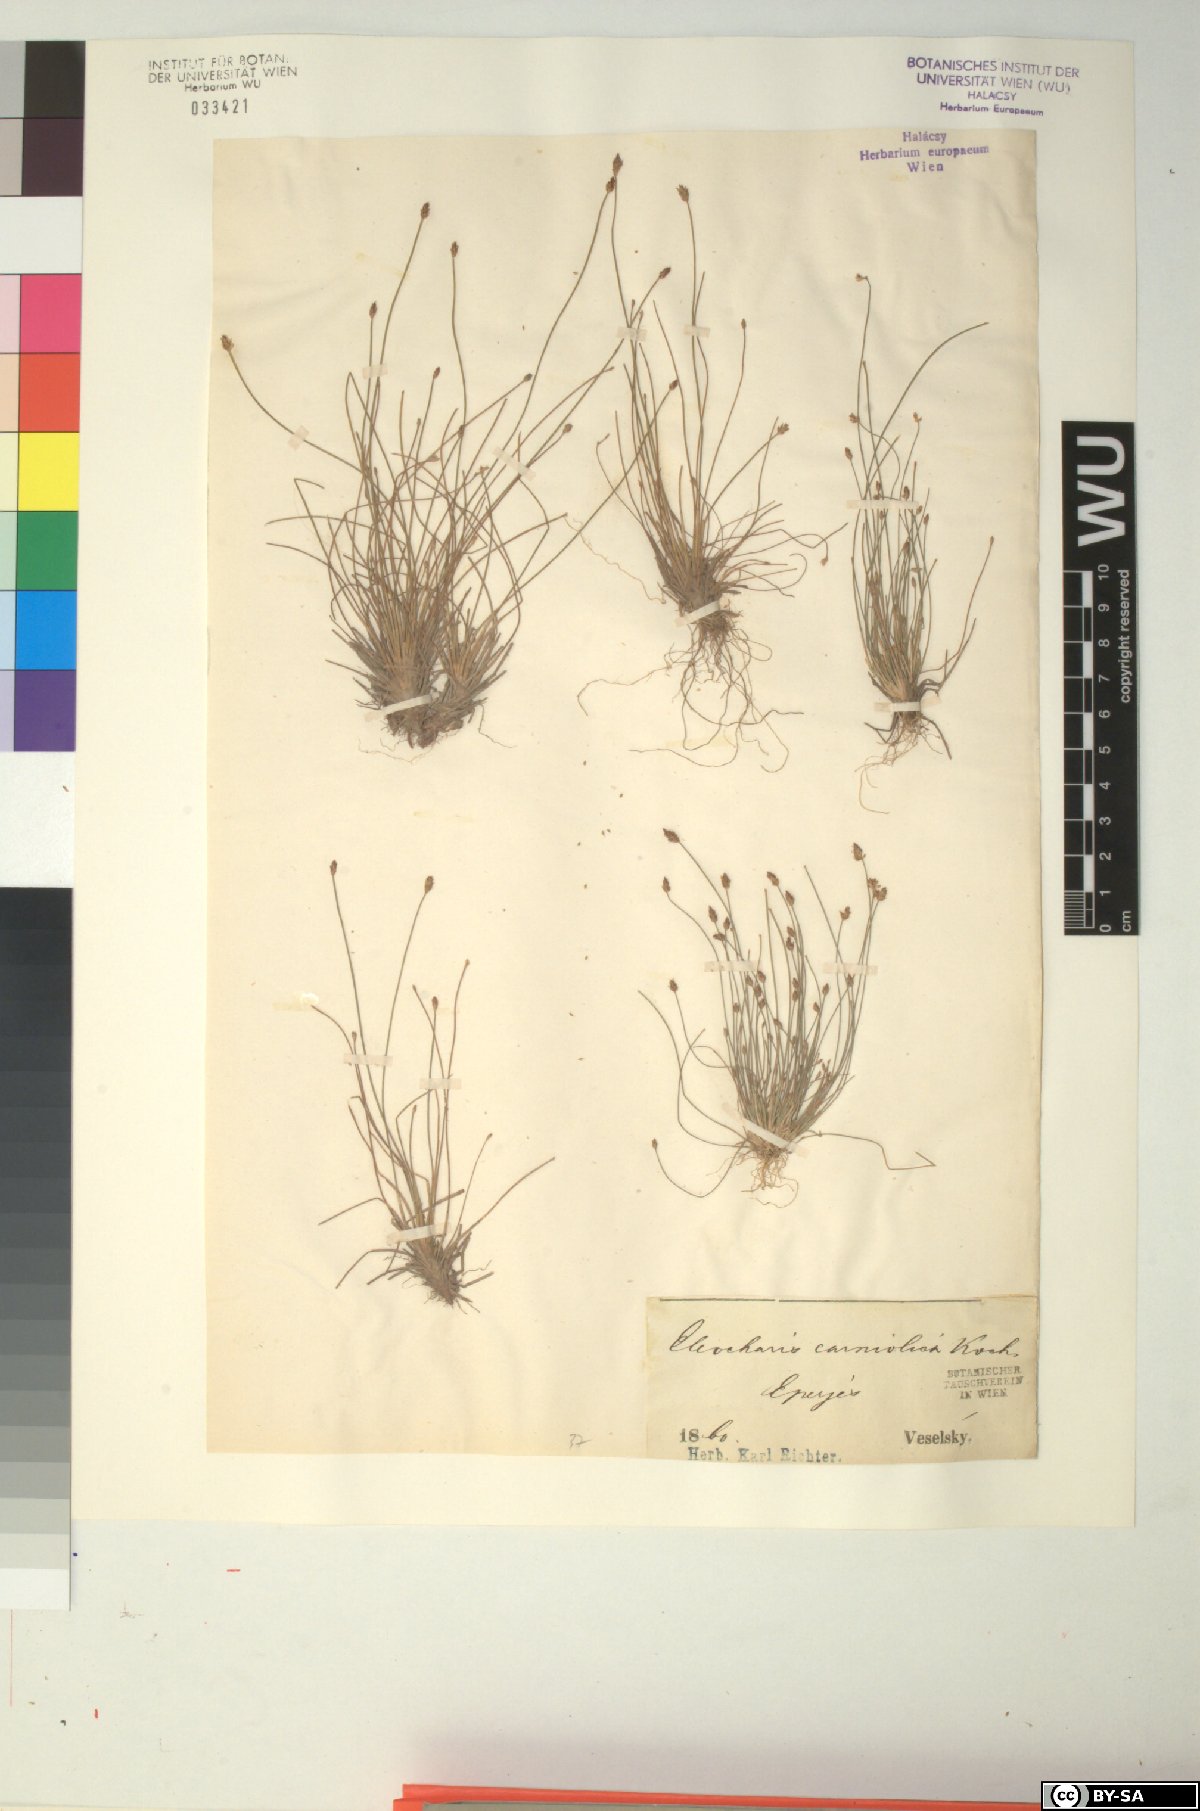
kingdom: Plantae
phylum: Tracheophyta
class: Liliopsida
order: Poales
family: Cyperaceae
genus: Eleocharis
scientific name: Eleocharis carniolica
